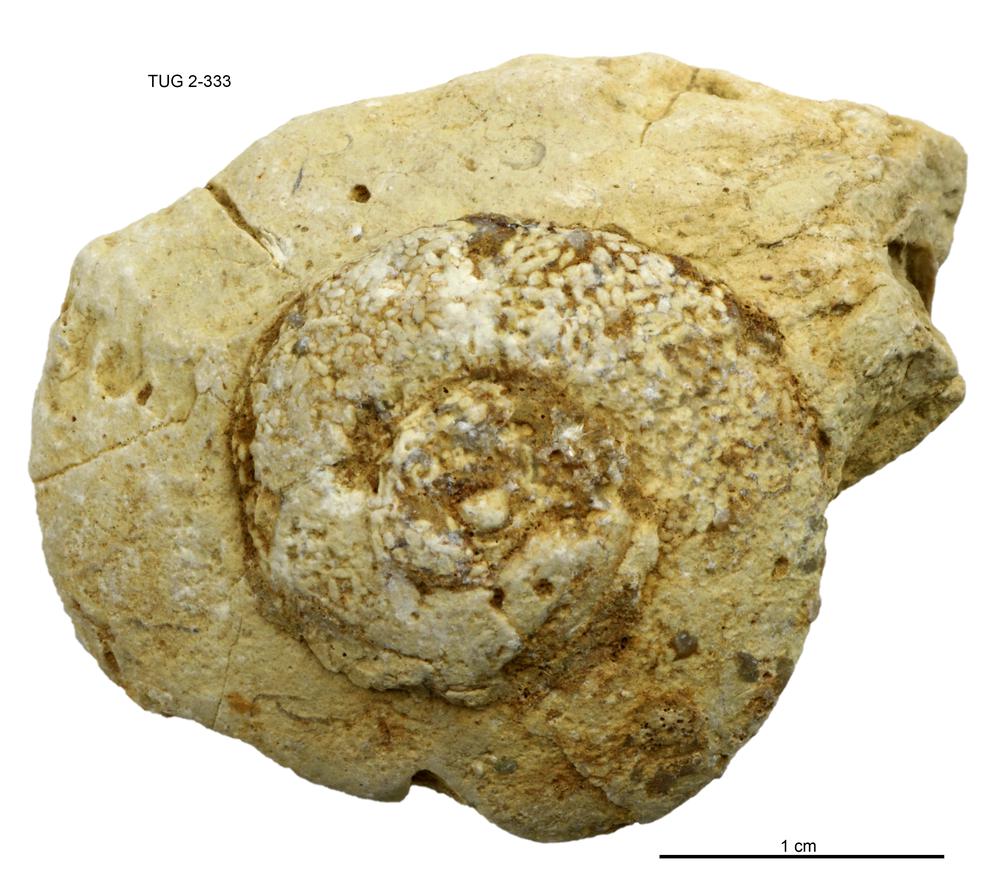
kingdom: Animalia
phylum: Mollusca
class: Gastropoda
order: Pleurotomariida
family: Eotomariidae
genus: Liospira
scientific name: Liospira Raphistoma wesenbergense
